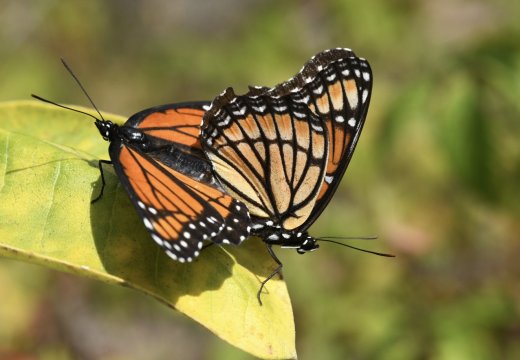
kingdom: Animalia
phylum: Arthropoda
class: Insecta
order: Lepidoptera
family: Nymphalidae
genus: Limenitis
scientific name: Limenitis archippus
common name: Viceroy
